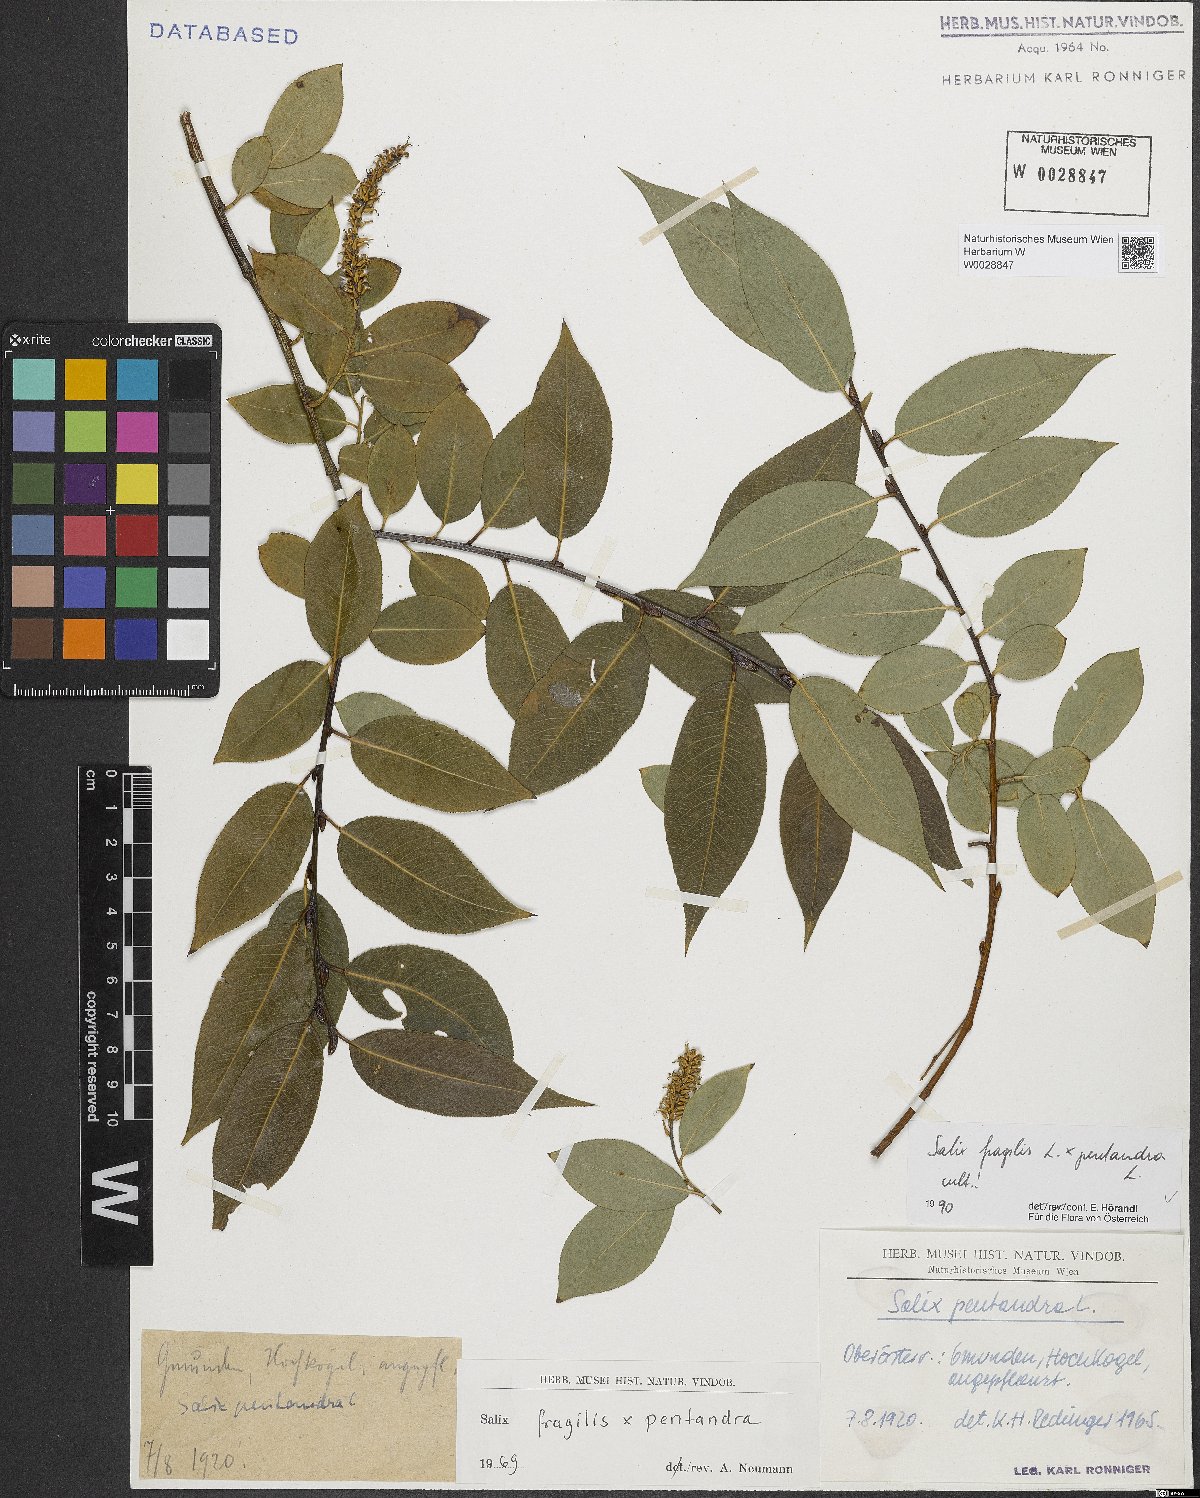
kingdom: Plantae
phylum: Tracheophyta
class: Magnoliopsida
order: Malpighiales
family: Salicaceae
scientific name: Salicaceae
